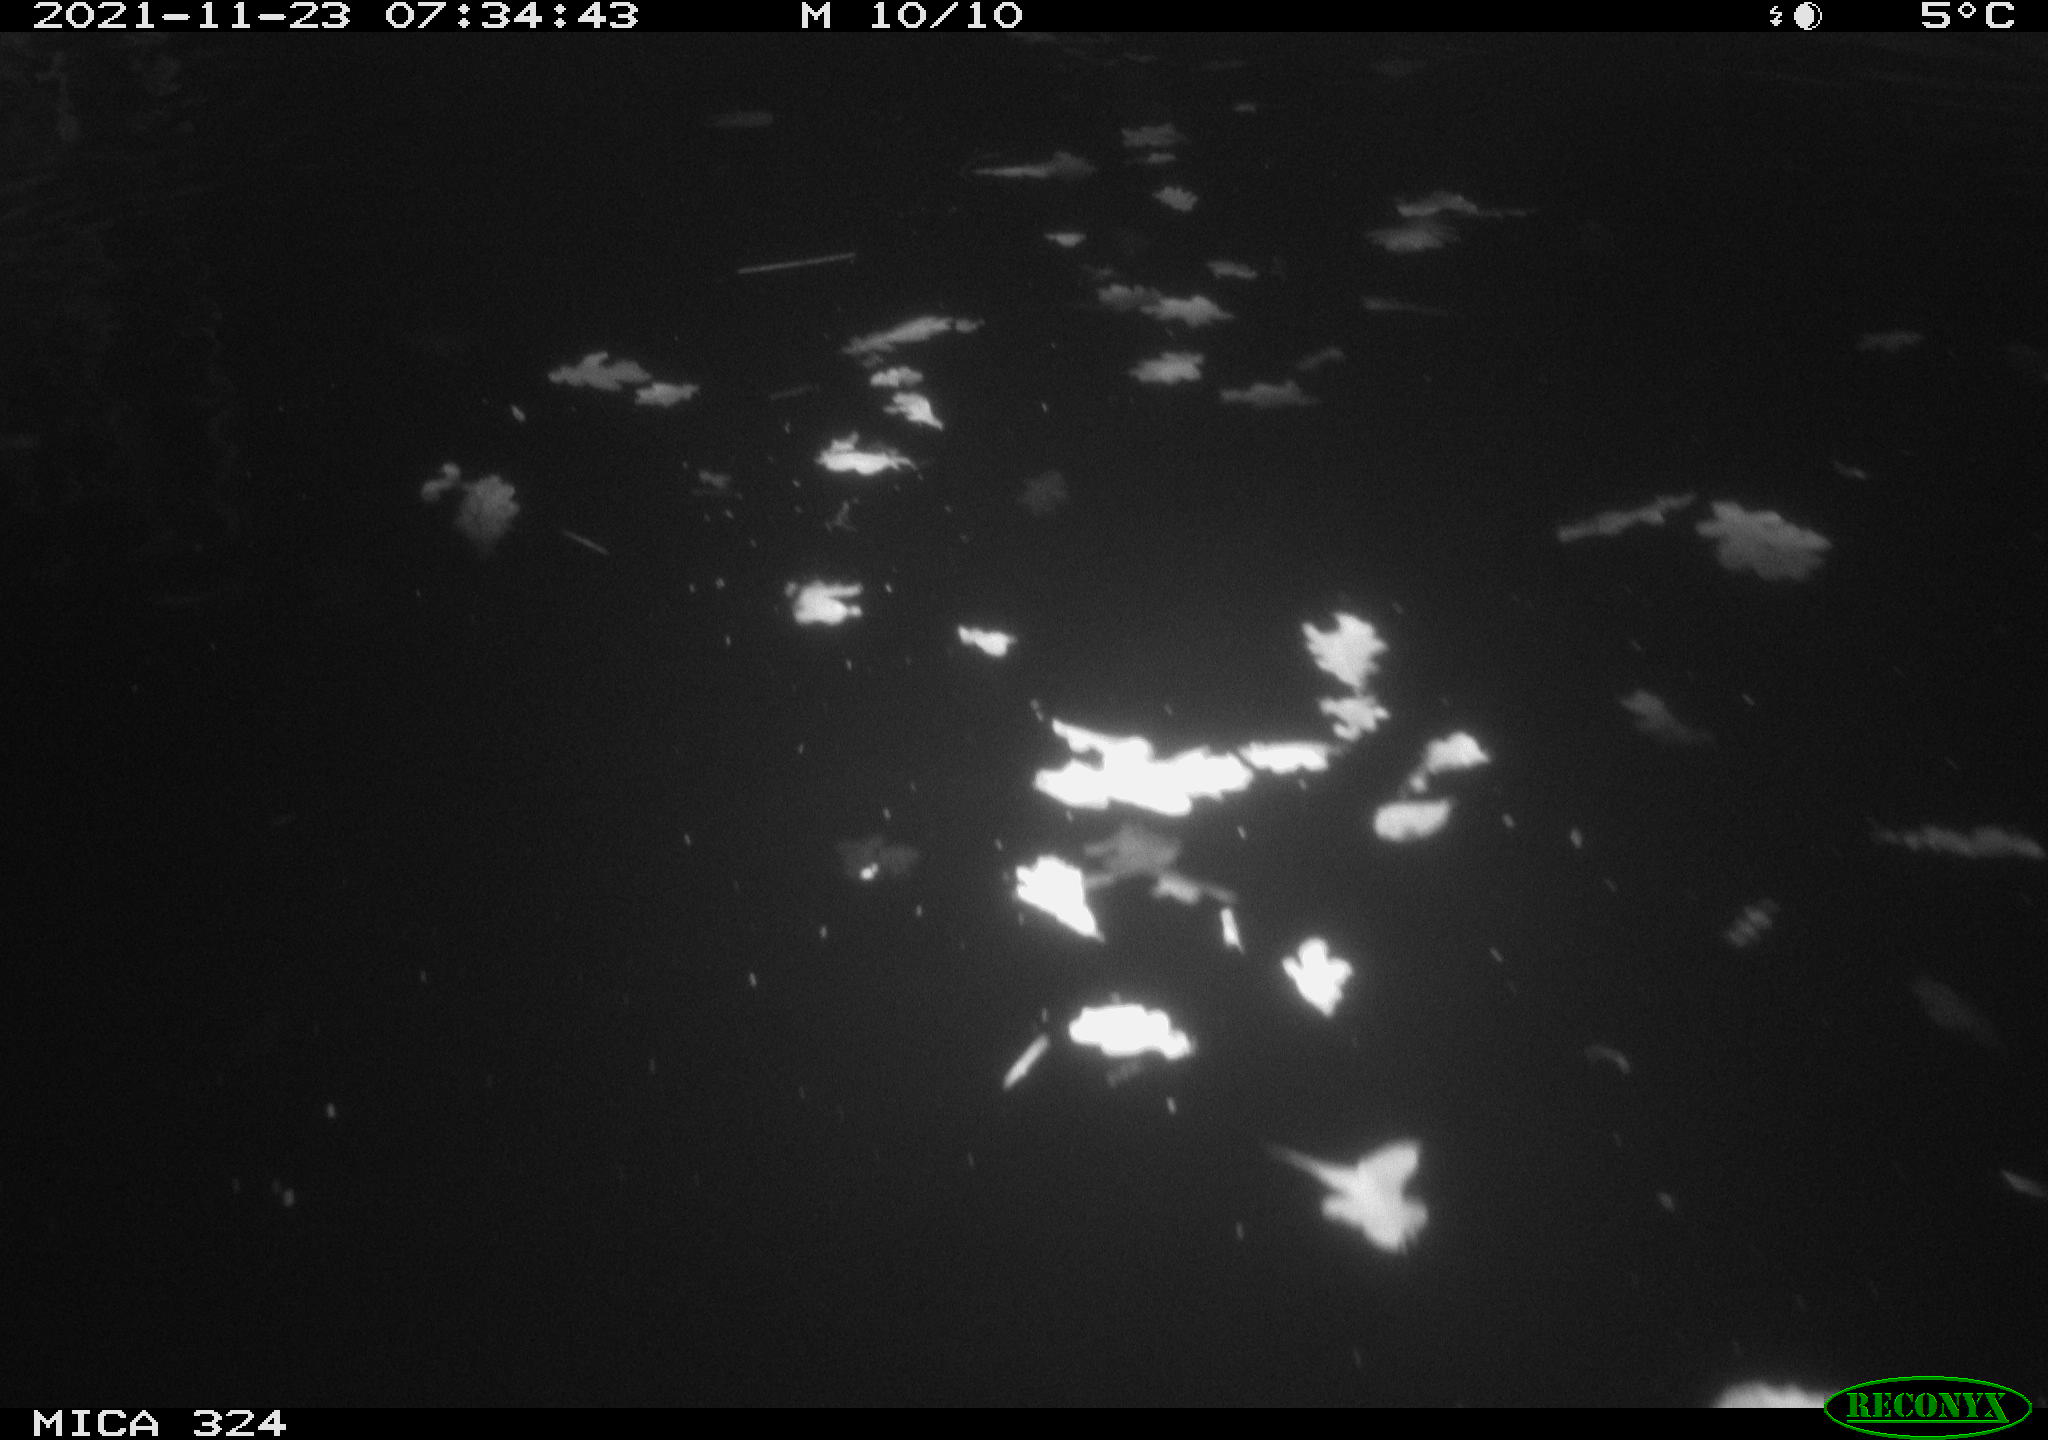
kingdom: Animalia
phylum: Chordata
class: Mammalia
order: Rodentia
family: Cricetidae
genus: Ondatra
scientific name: Ondatra zibethicus
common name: Muskrat
